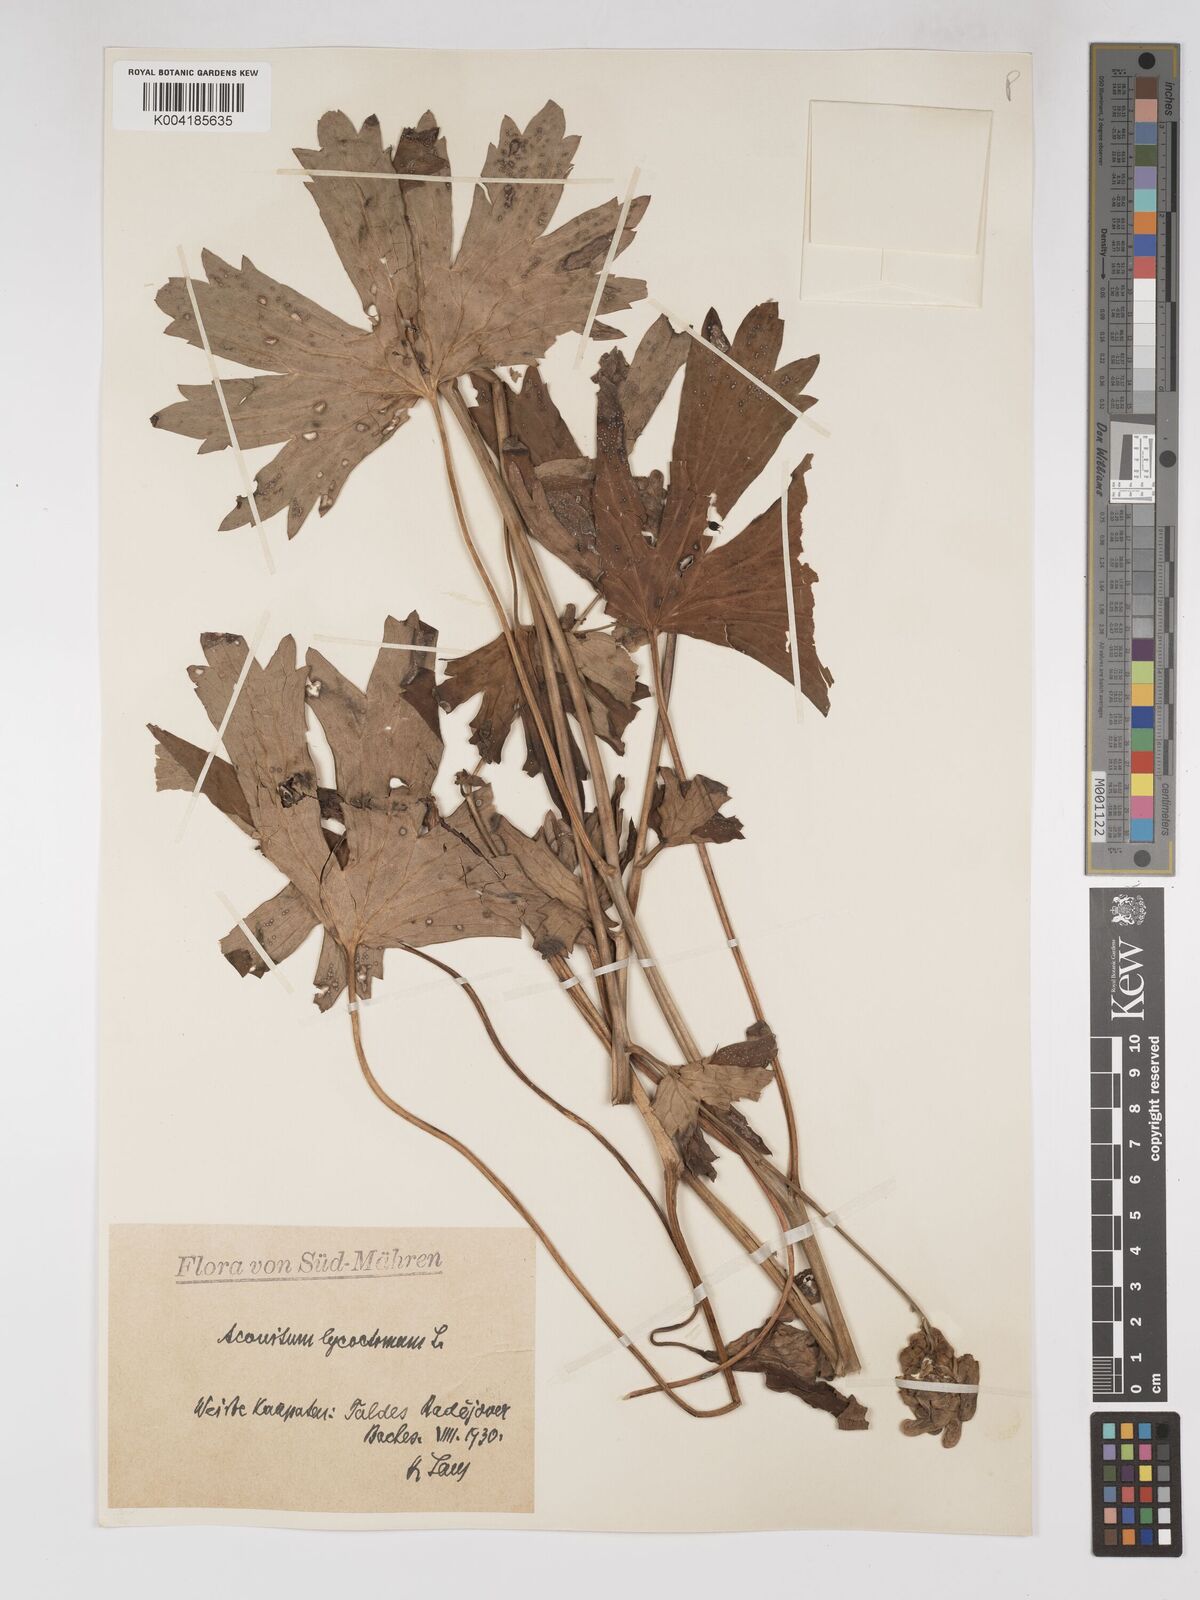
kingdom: Plantae
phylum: Tracheophyta
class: Magnoliopsida
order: Ranunculales
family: Ranunculaceae
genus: Aconitum
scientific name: Aconitum lycoctonum
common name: Wolf's-bane
